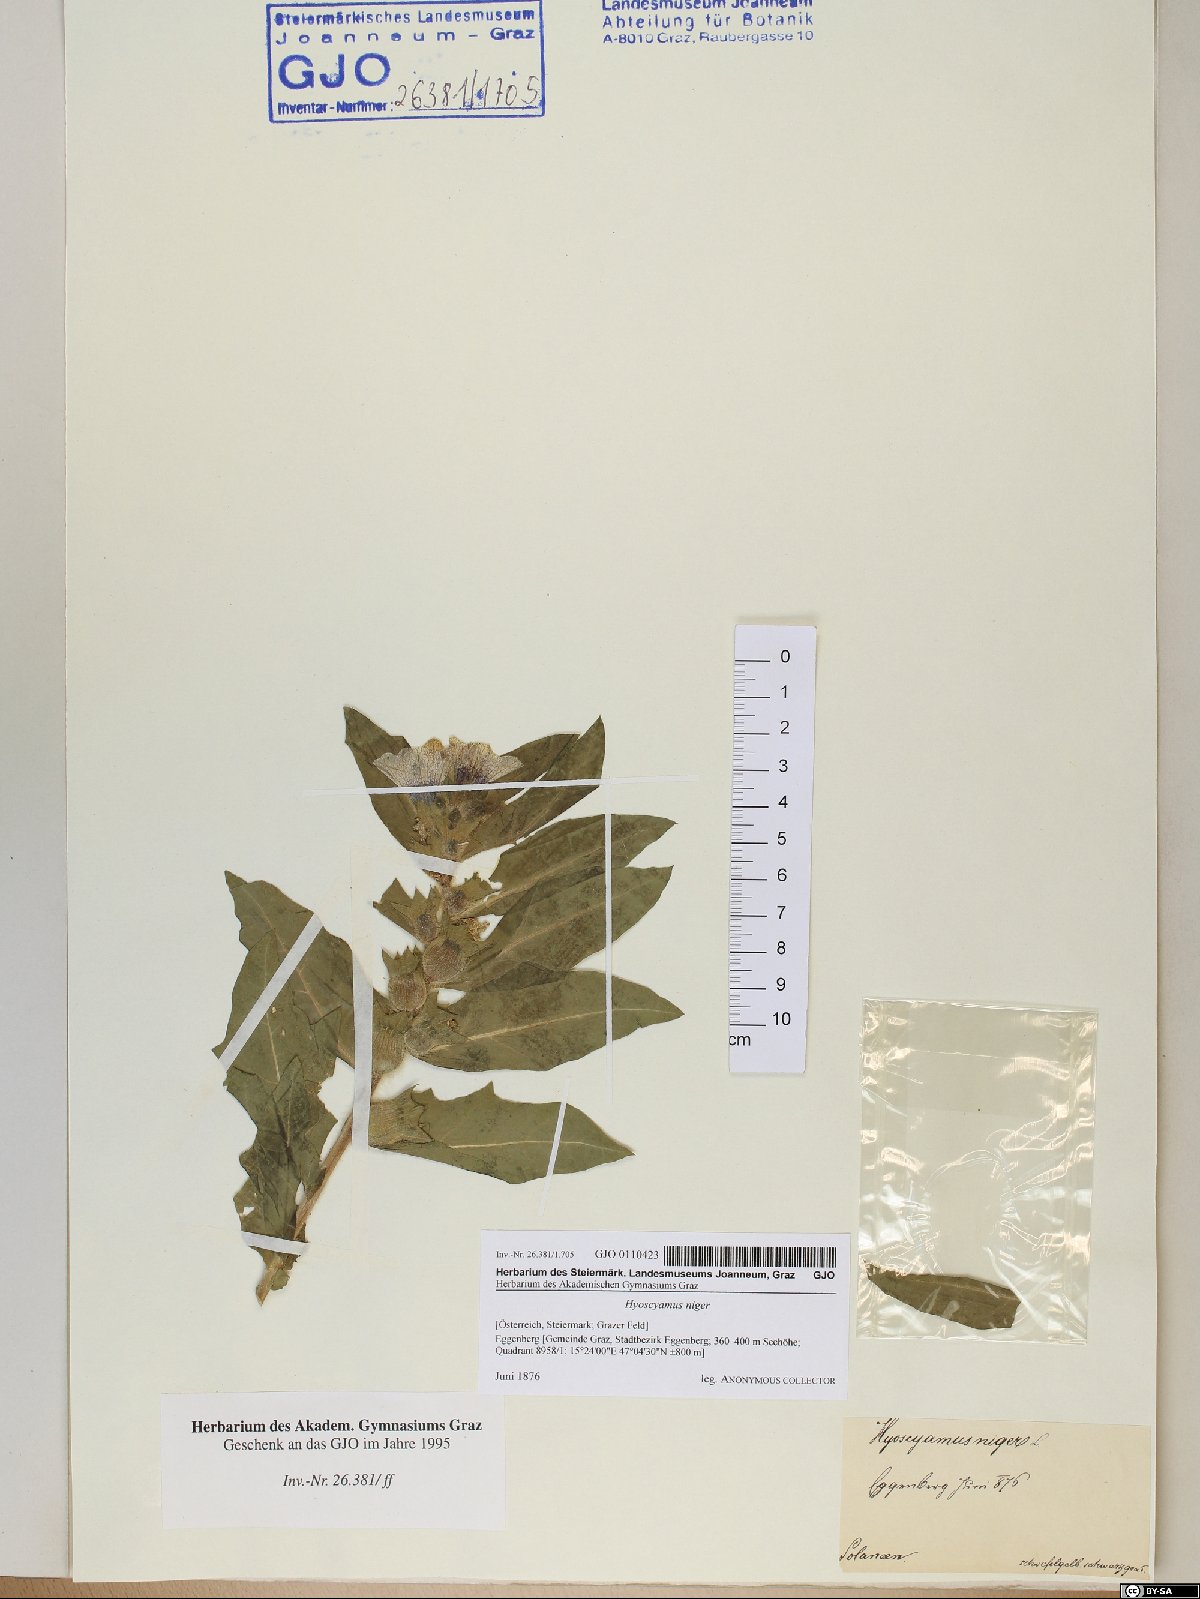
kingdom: Plantae
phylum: Tracheophyta
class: Magnoliopsida
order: Solanales
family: Solanaceae
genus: Hyoscyamus
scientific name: Hyoscyamus niger
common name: Henbane
